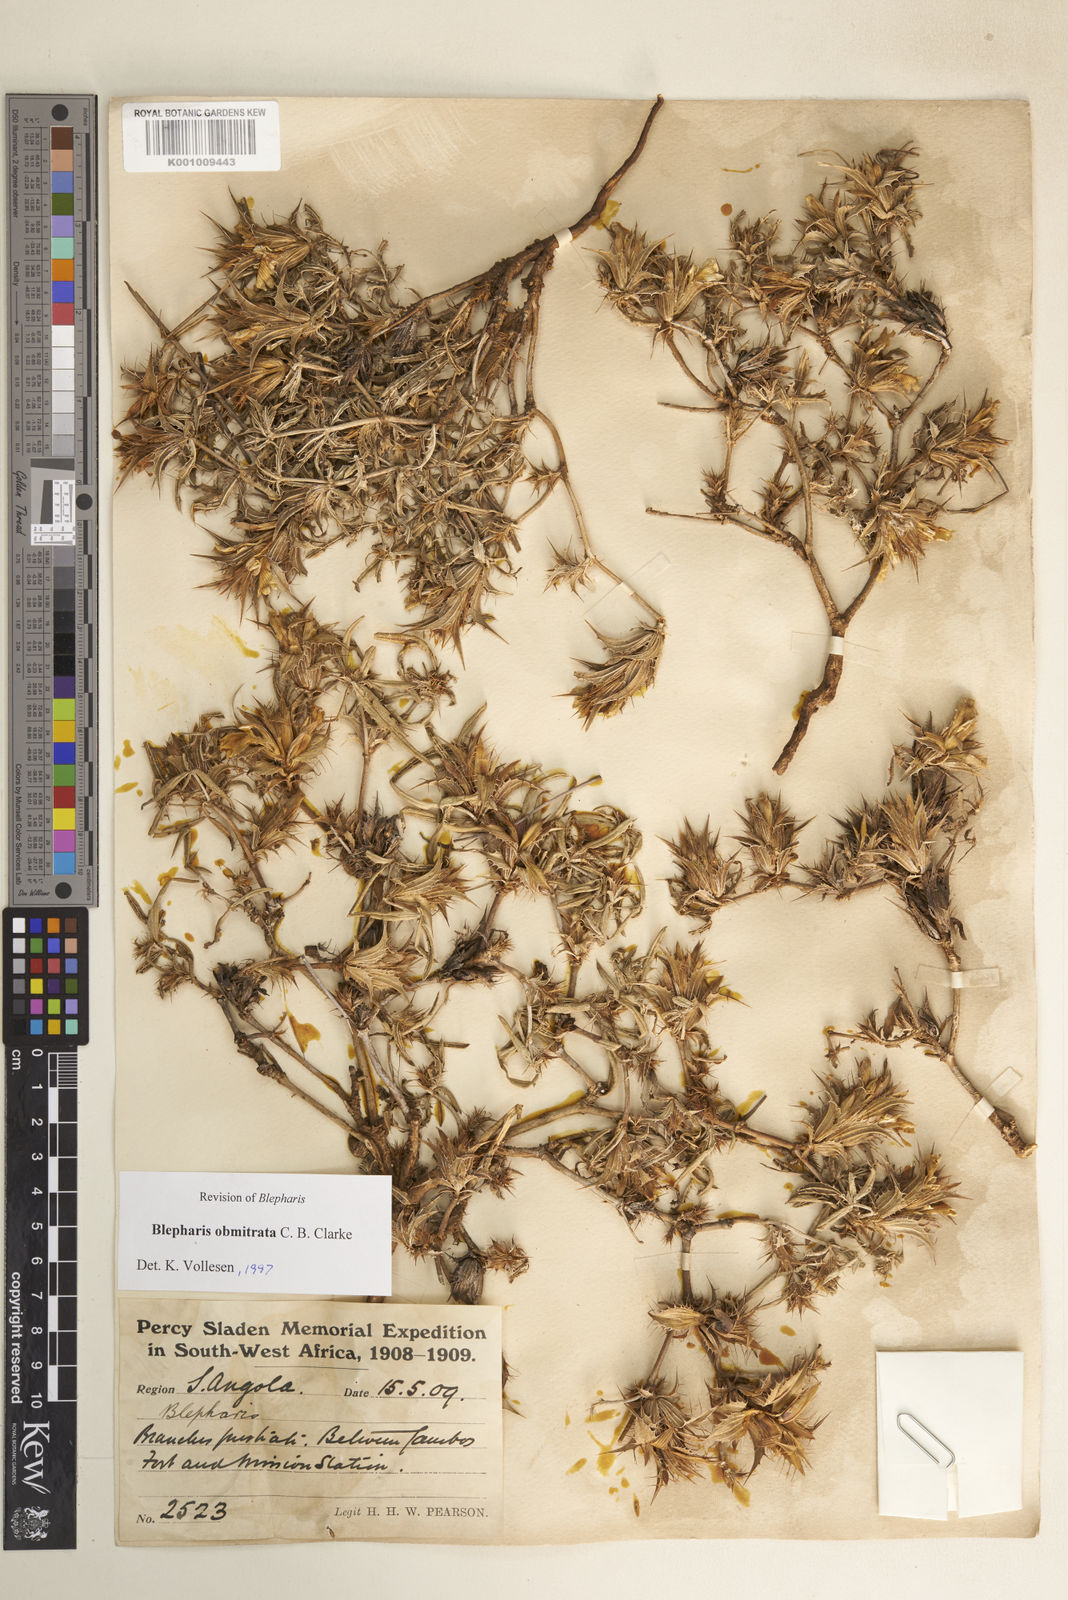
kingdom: Plantae
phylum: Tracheophyta
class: Magnoliopsida
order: Lamiales
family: Acanthaceae
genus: Blepharis
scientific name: Blepharis obmitrata
